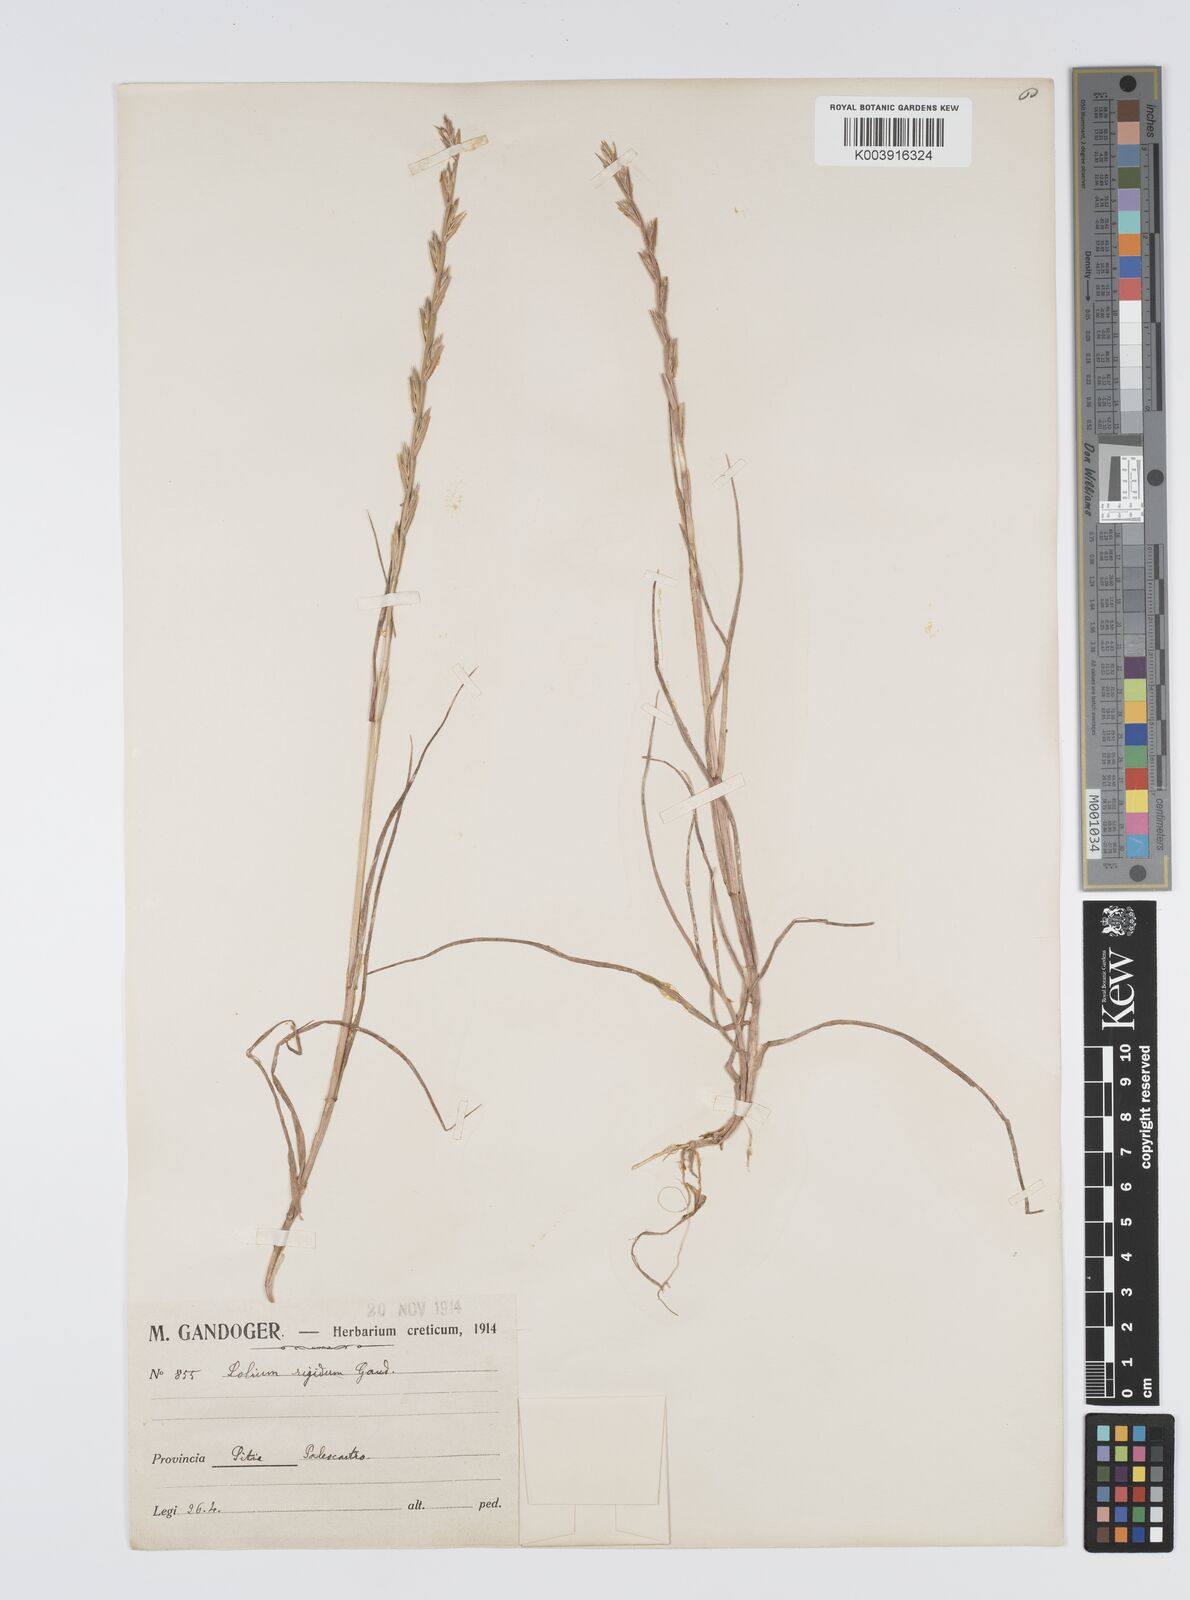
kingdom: Plantae
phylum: Tracheophyta
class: Liliopsida
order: Poales
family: Poaceae
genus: Lolium
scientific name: Lolium rigidum
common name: Wimmera ryegrass
